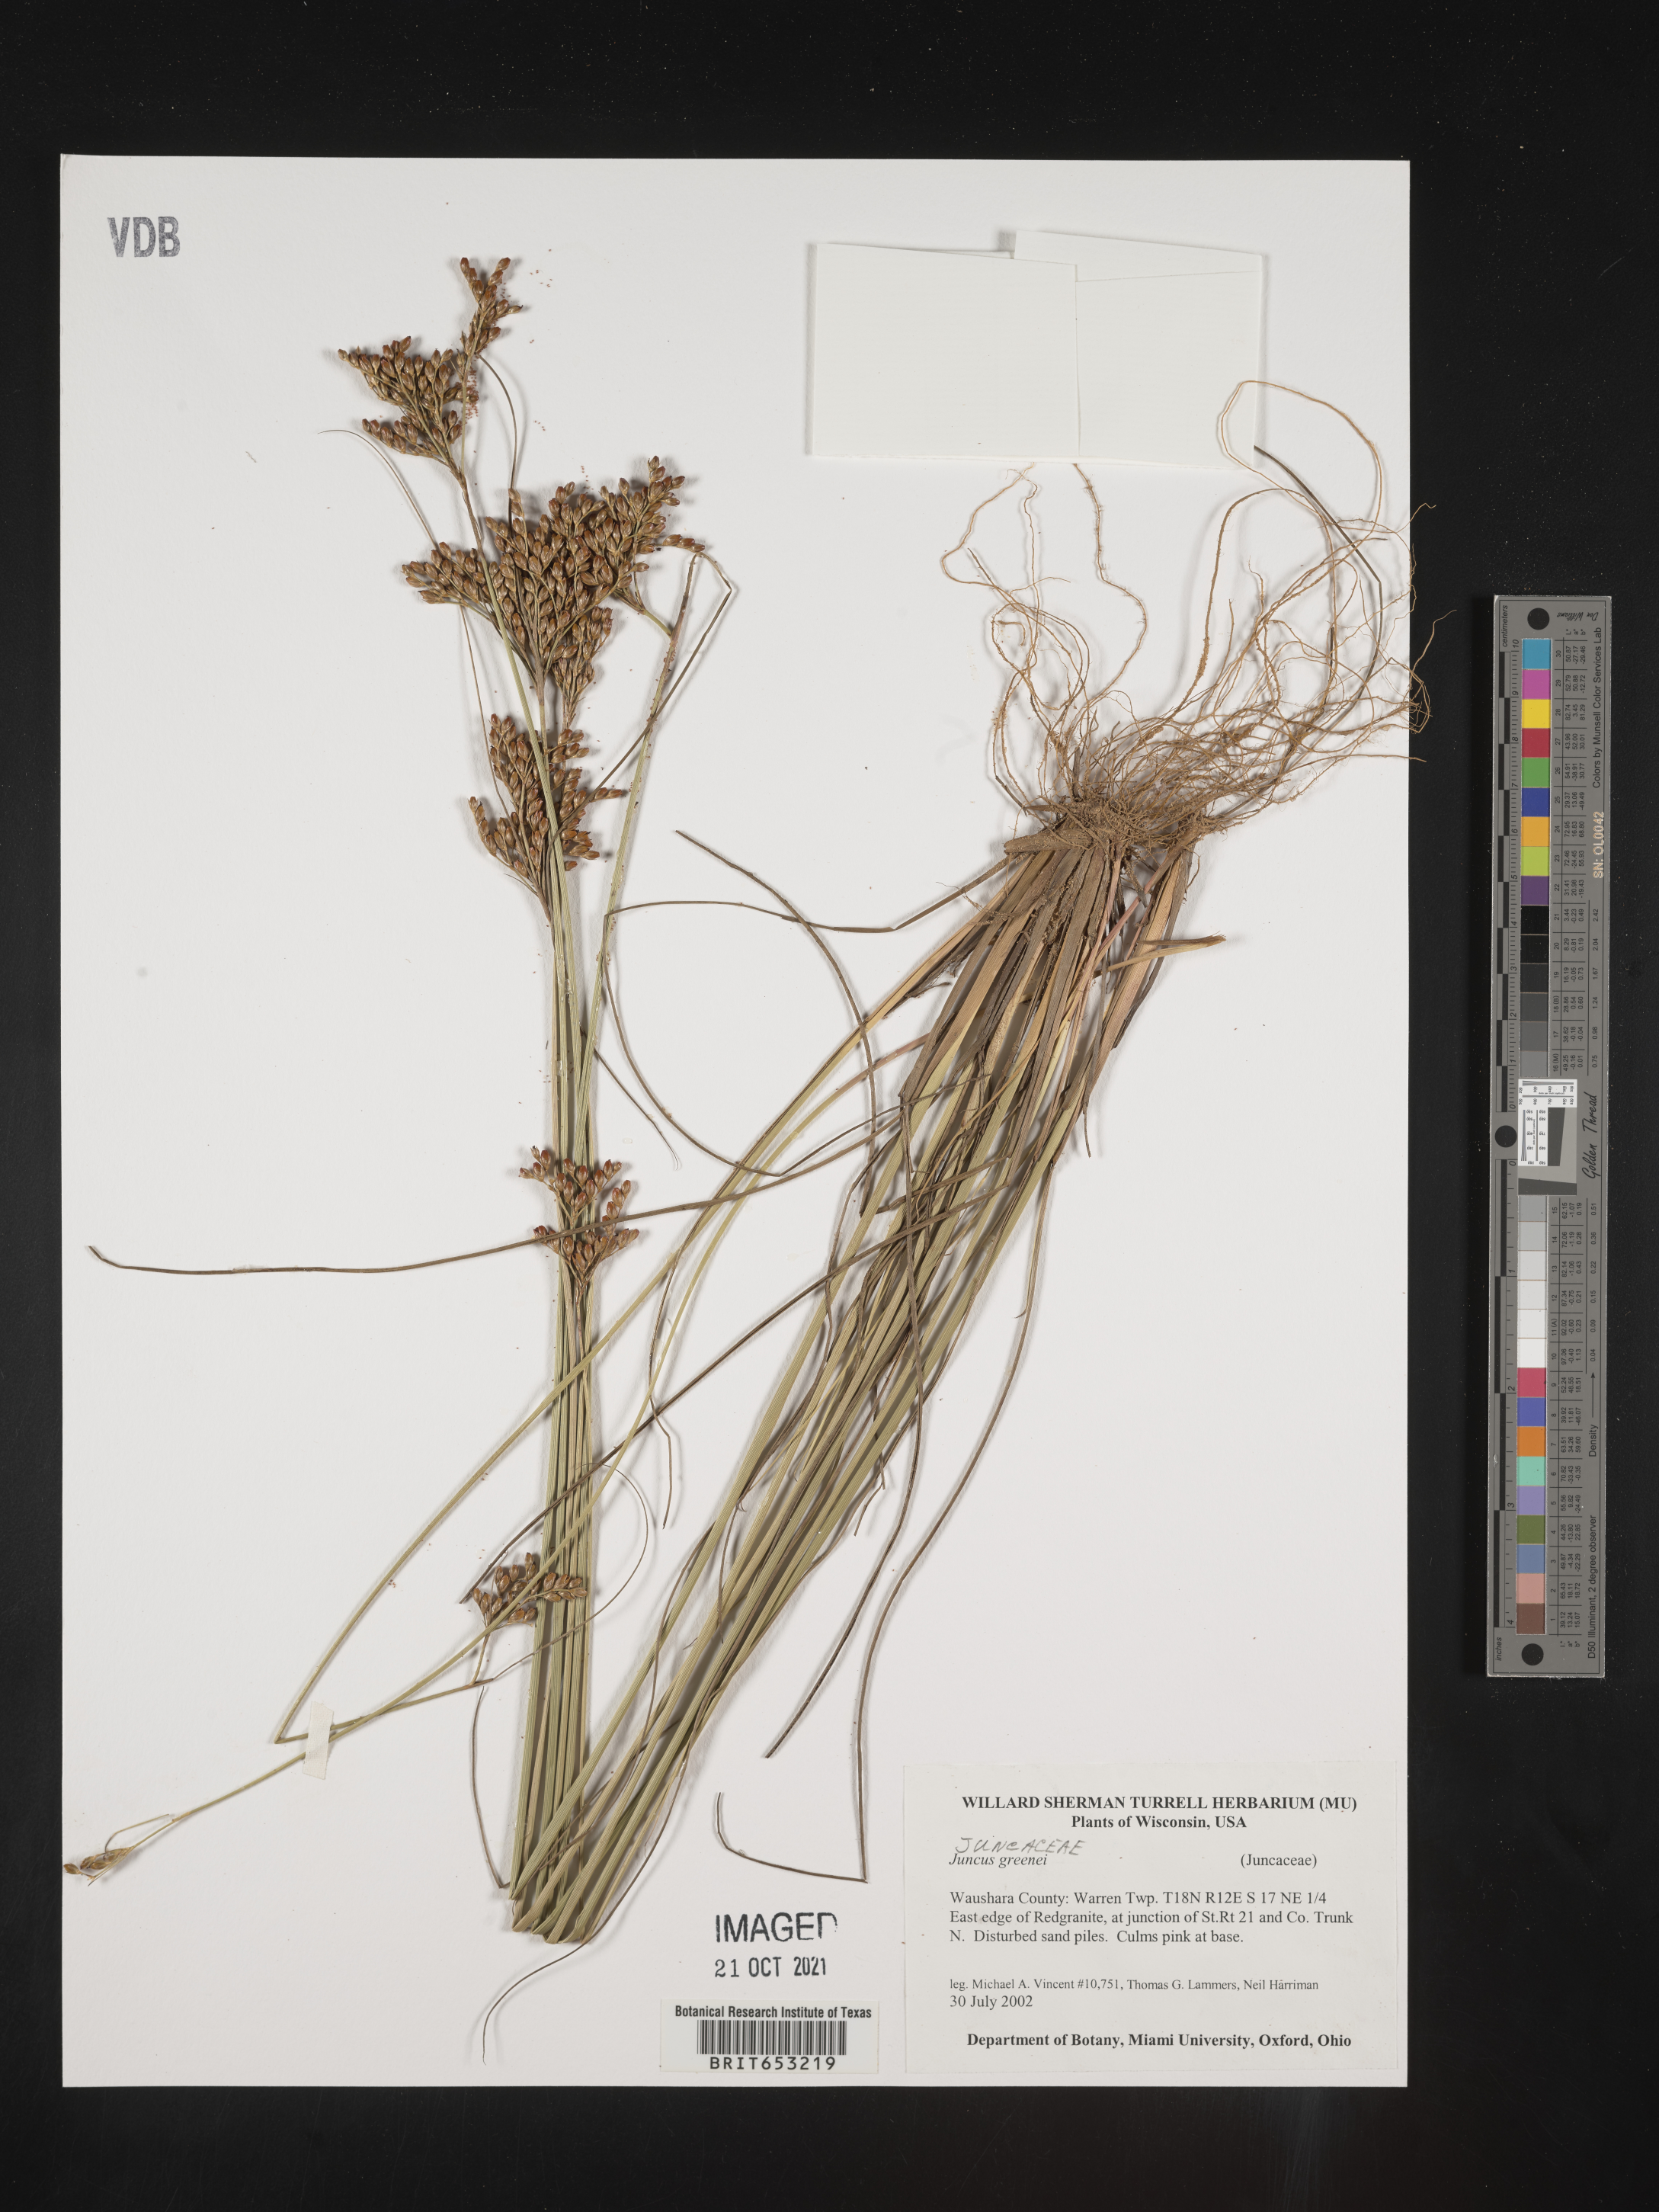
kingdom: Plantae
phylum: Tracheophyta
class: Liliopsida
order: Poales
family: Juncaceae
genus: Juncus
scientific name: Juncus greenei
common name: Greene's rush
